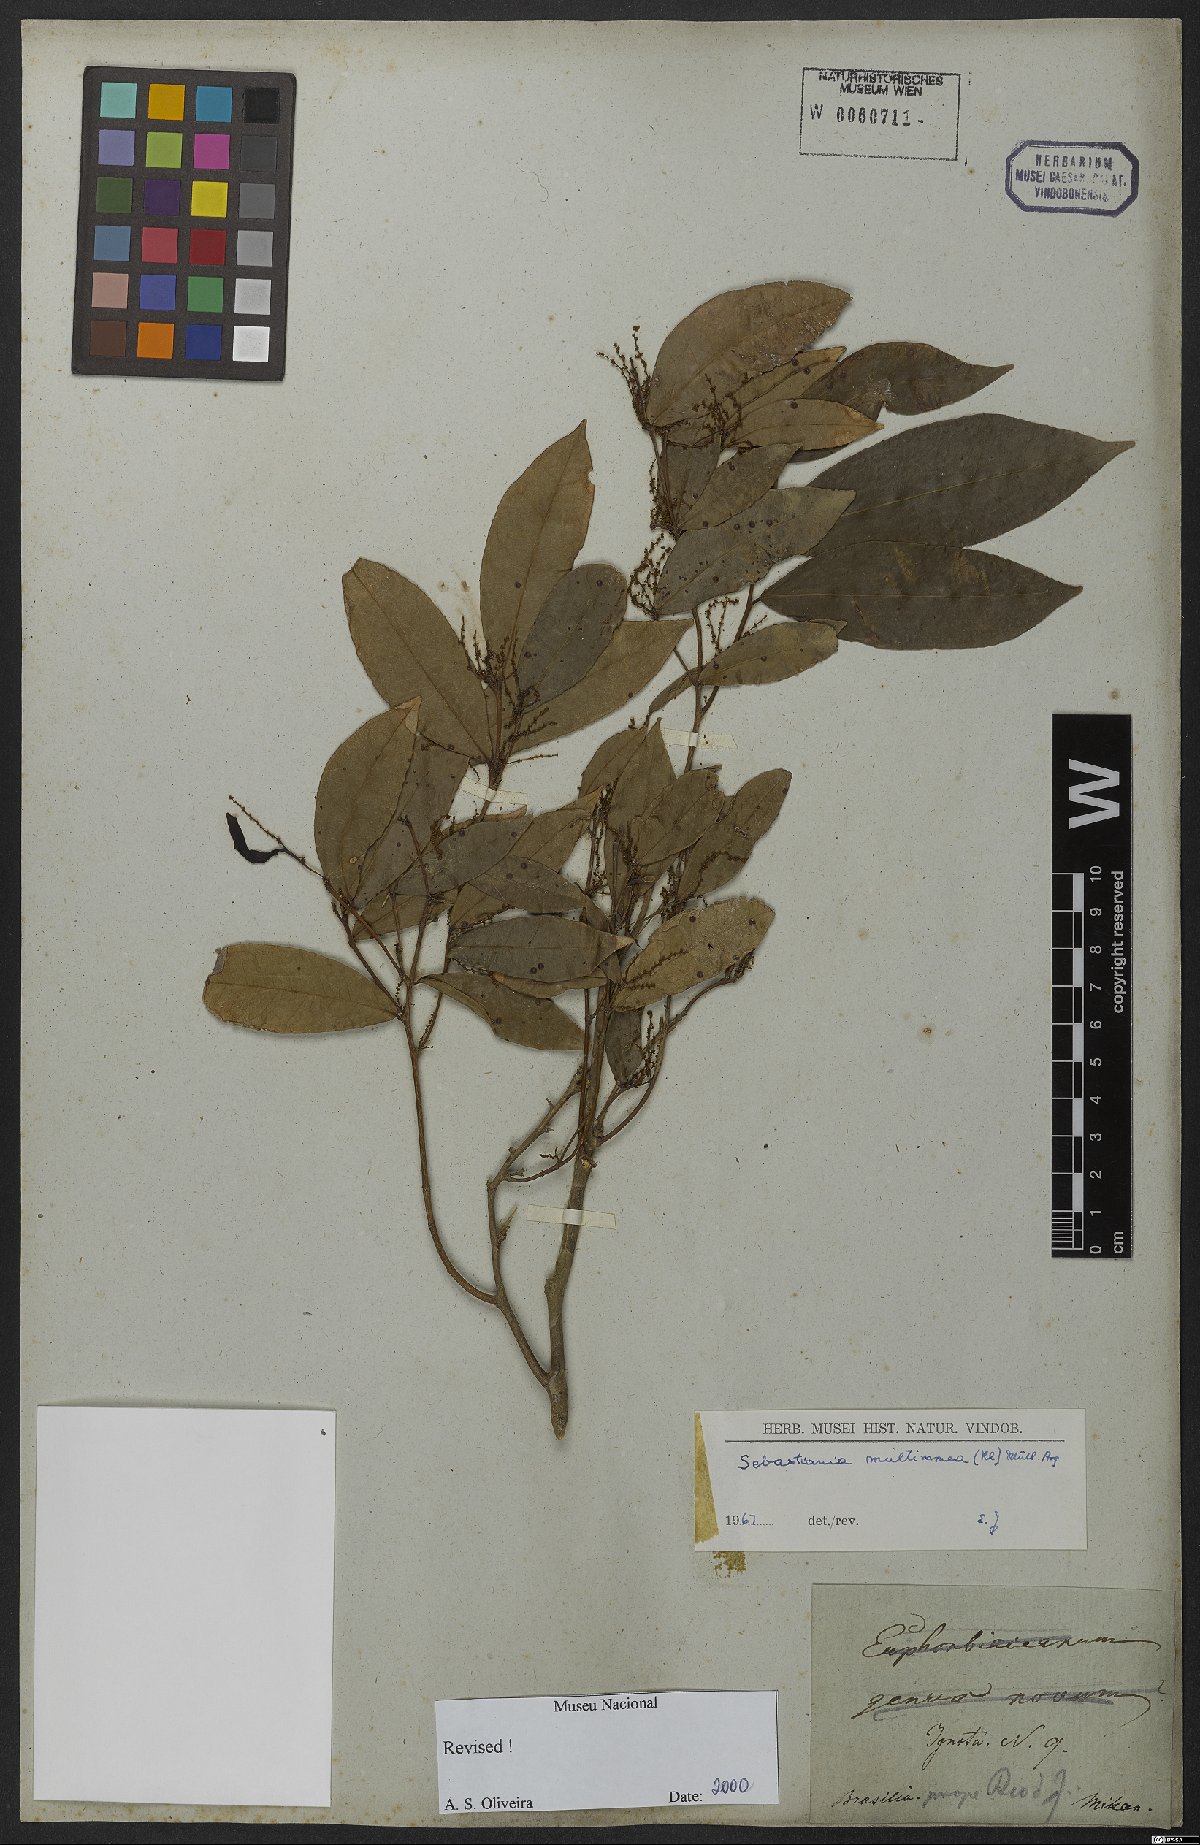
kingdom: Plantae
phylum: Tracheophyta
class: Magnoliopsida
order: Malpighiales
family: Euphorbiaceae
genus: Gymnanthes
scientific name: Gymnanthes glabrata
